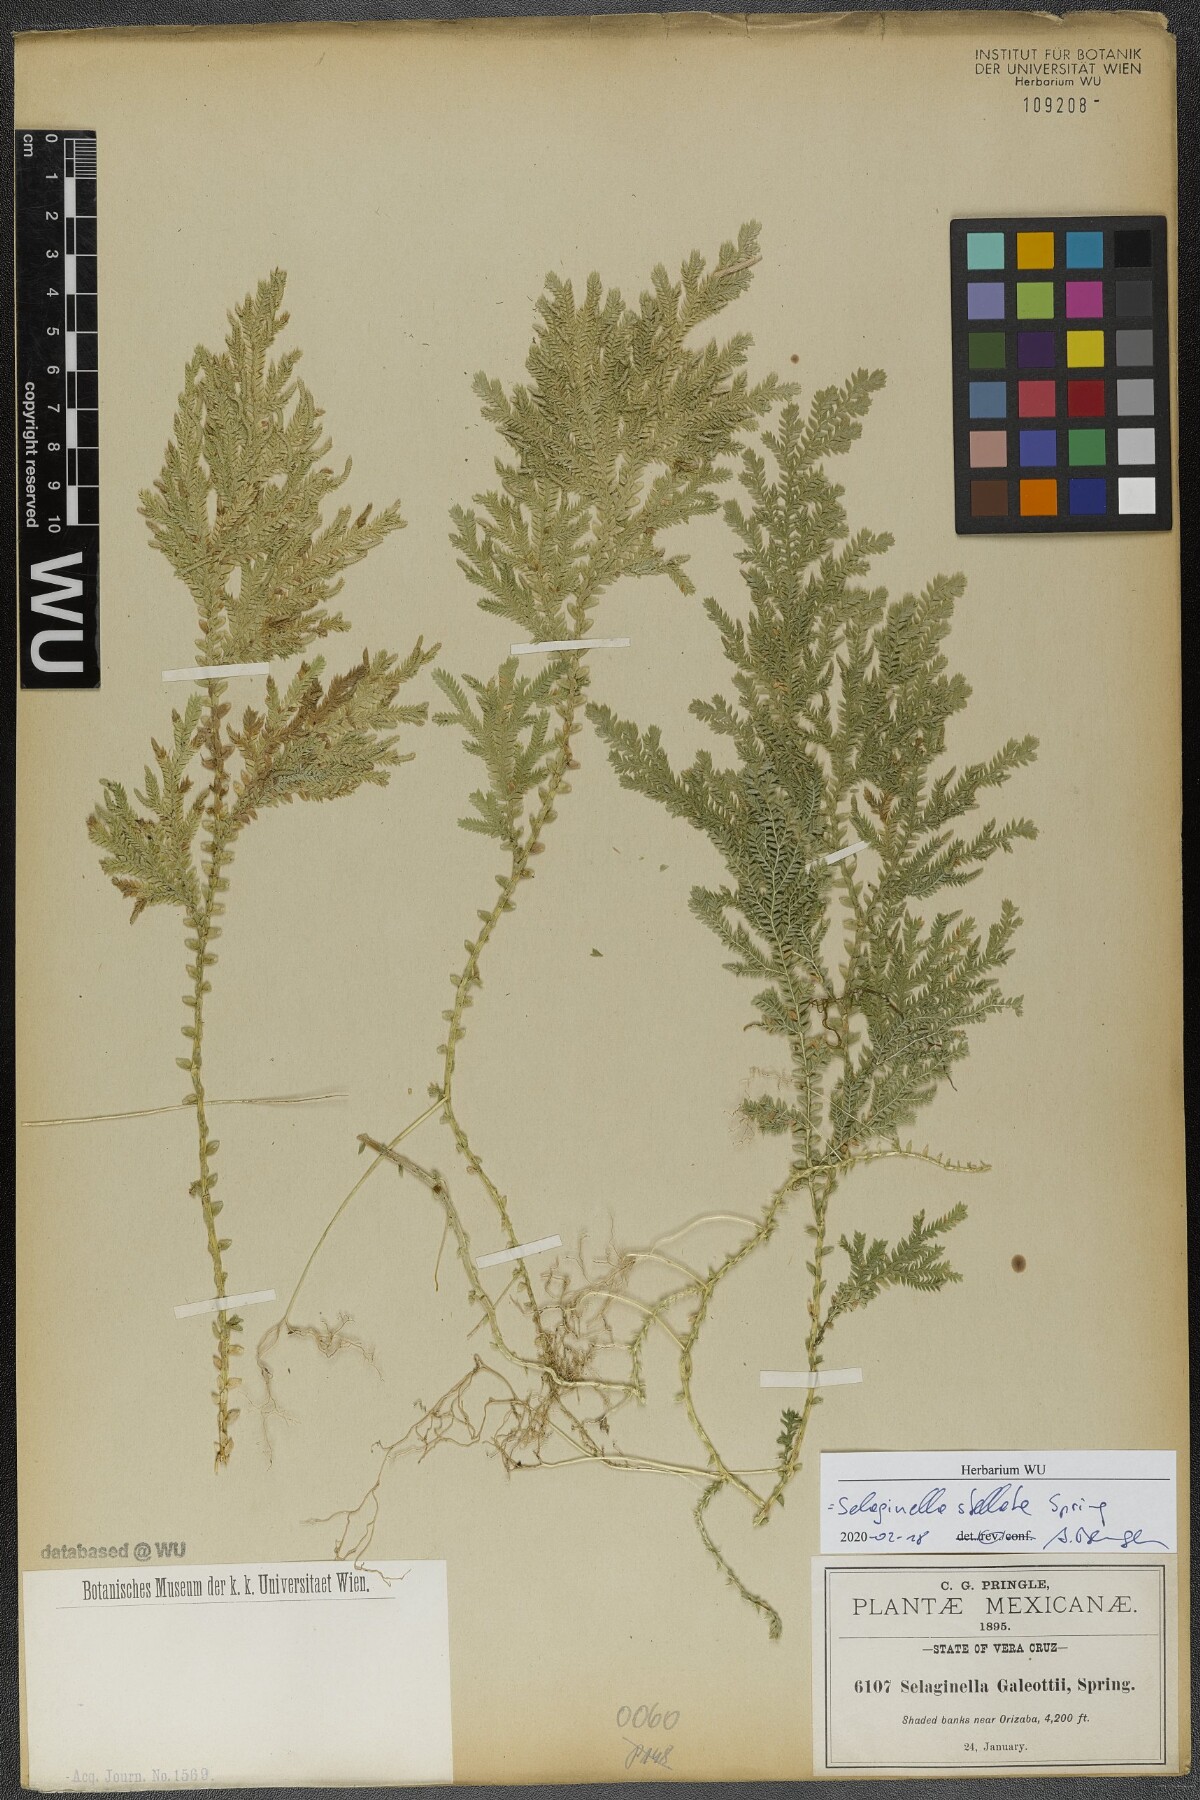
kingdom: Plantae
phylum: Tracheophyta
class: Lycopodiopsida
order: Selaginellales
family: Selaginellaceae
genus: Selaginella
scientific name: Selaginella stellata
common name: Starry spikemoss
